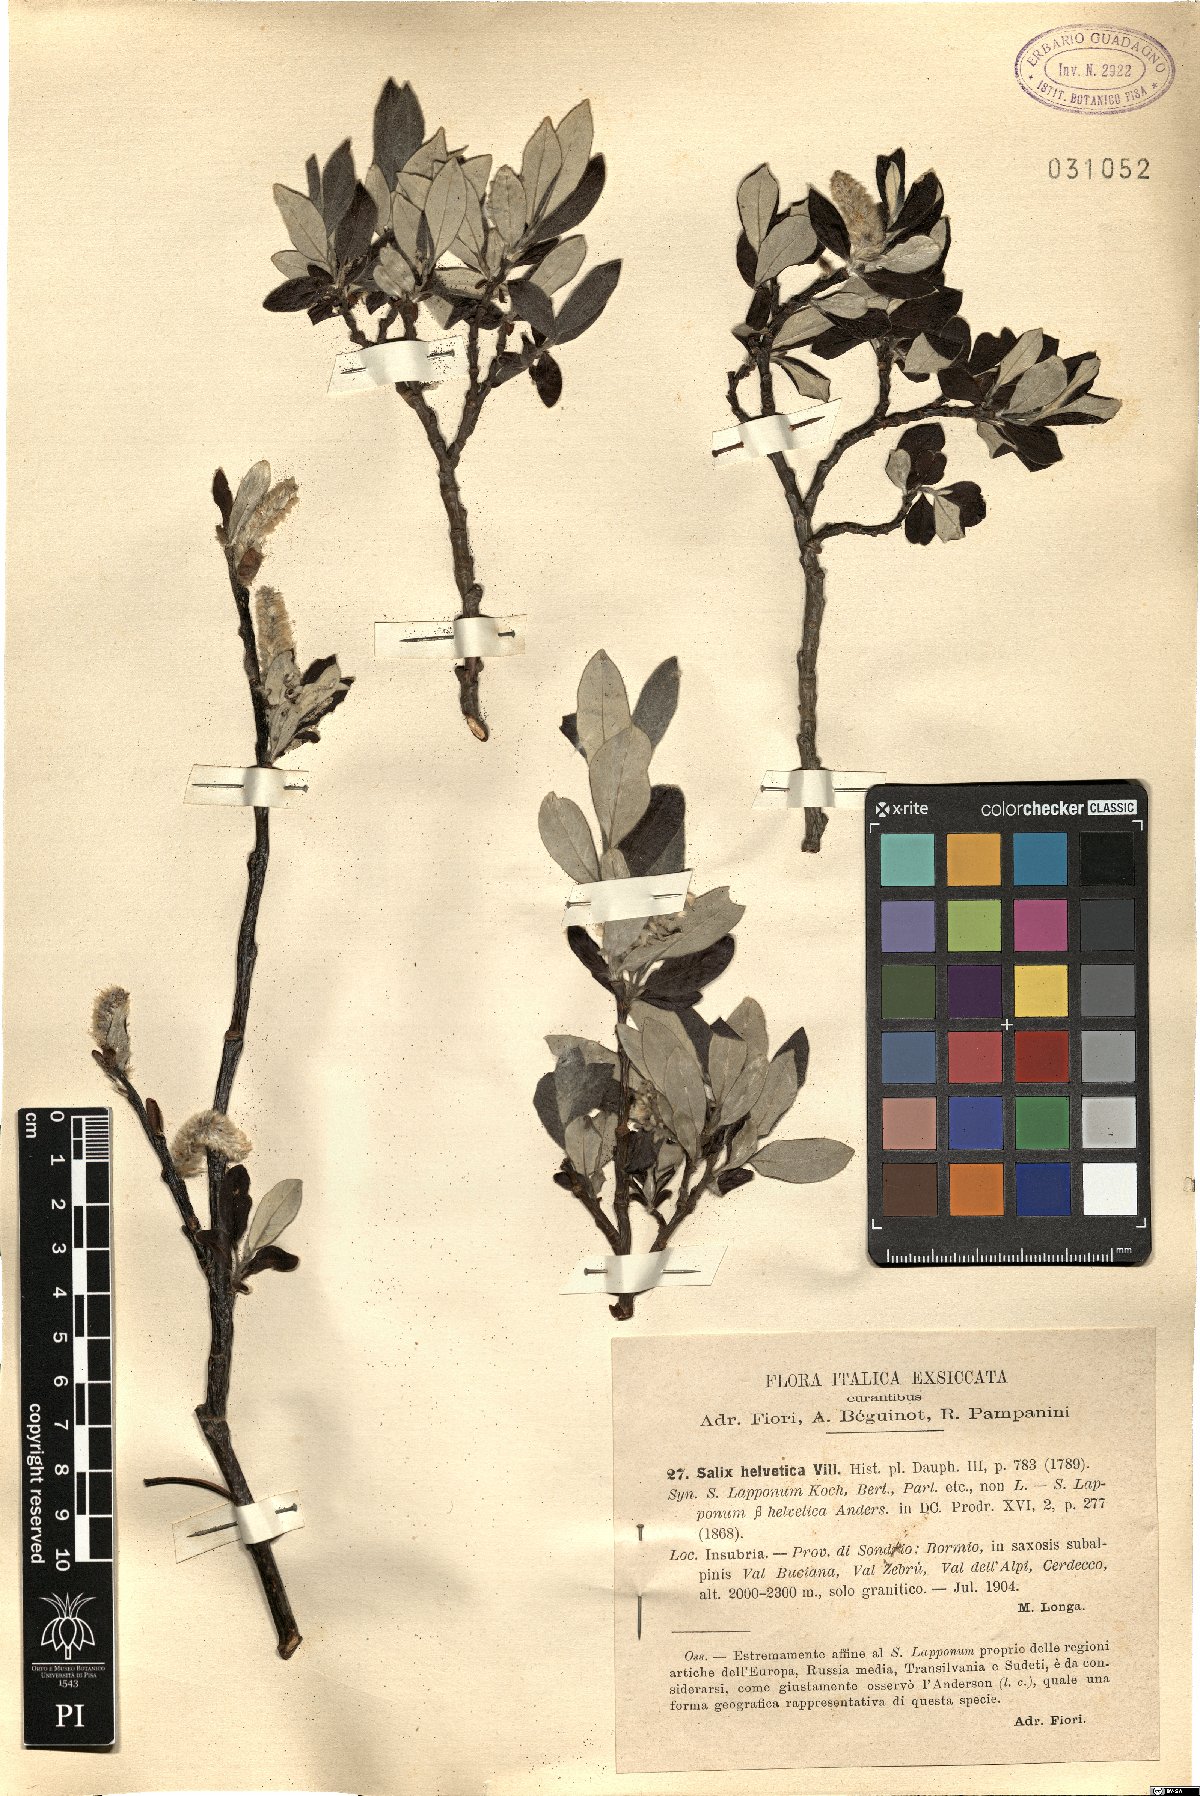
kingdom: Plantae
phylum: Tracheophyta
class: Magnoliopsida
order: Malpighiales
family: Salicaceae
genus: Salix
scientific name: Salix helvetica
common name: Swiss willow
